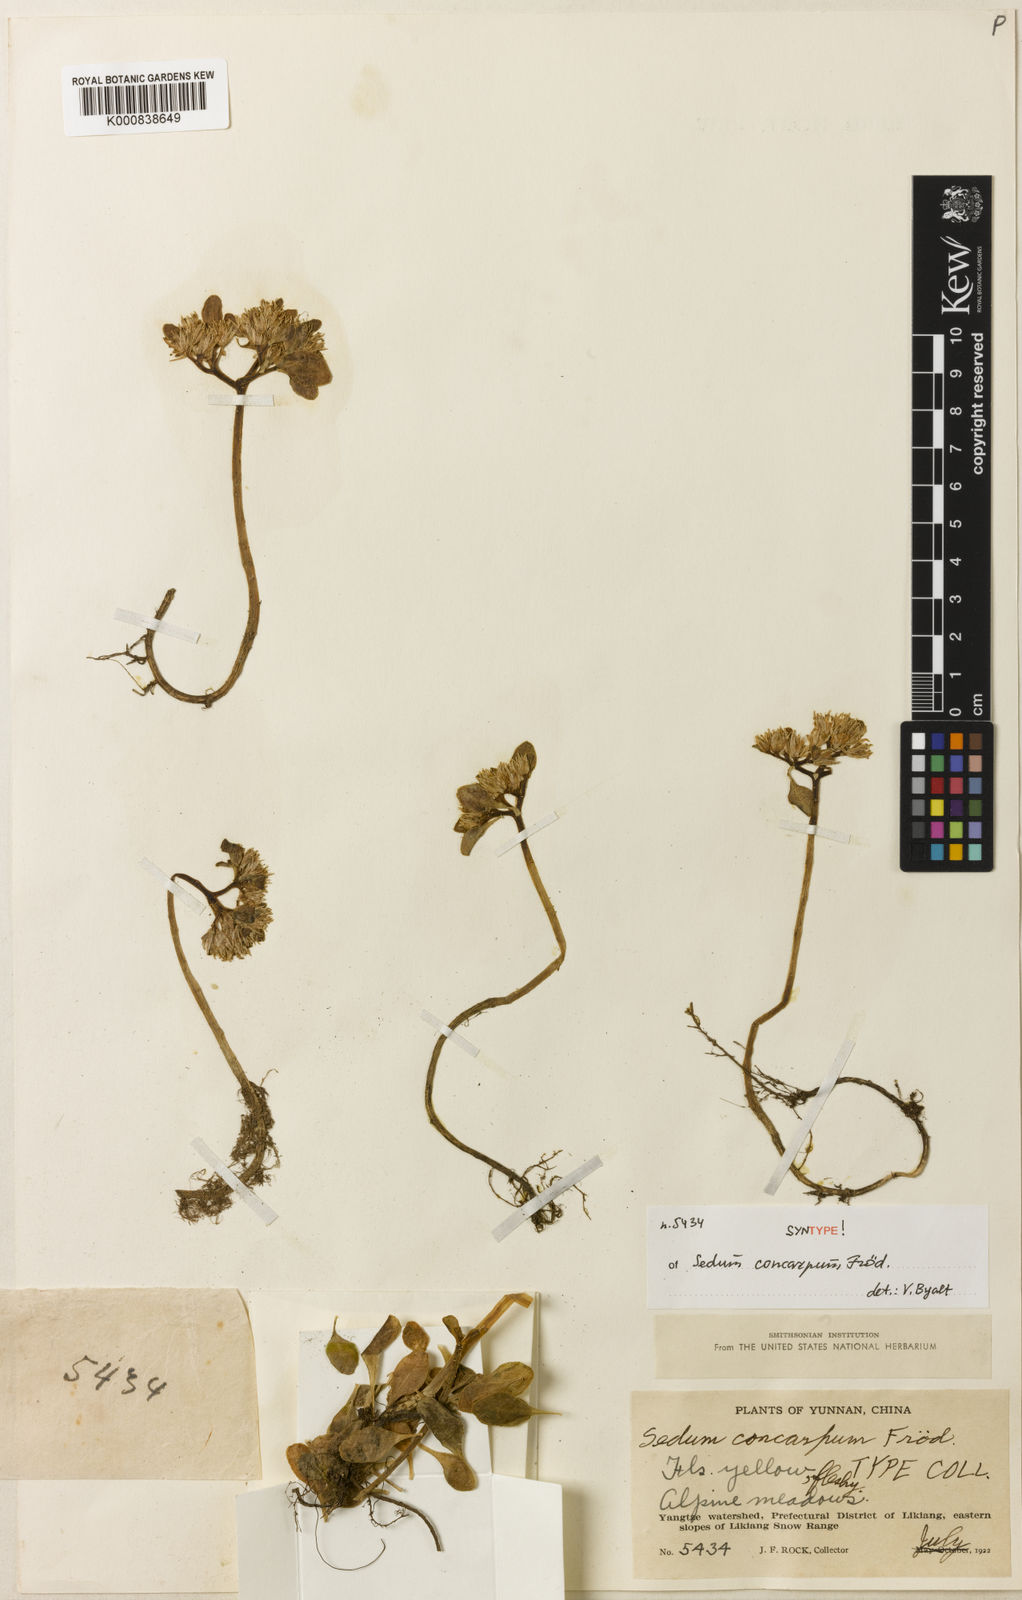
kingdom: Plantae
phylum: Tracheophyta
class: Magnoliopsida
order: Saxifragales
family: Crassulaceae
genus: Sedum
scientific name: Sedum
